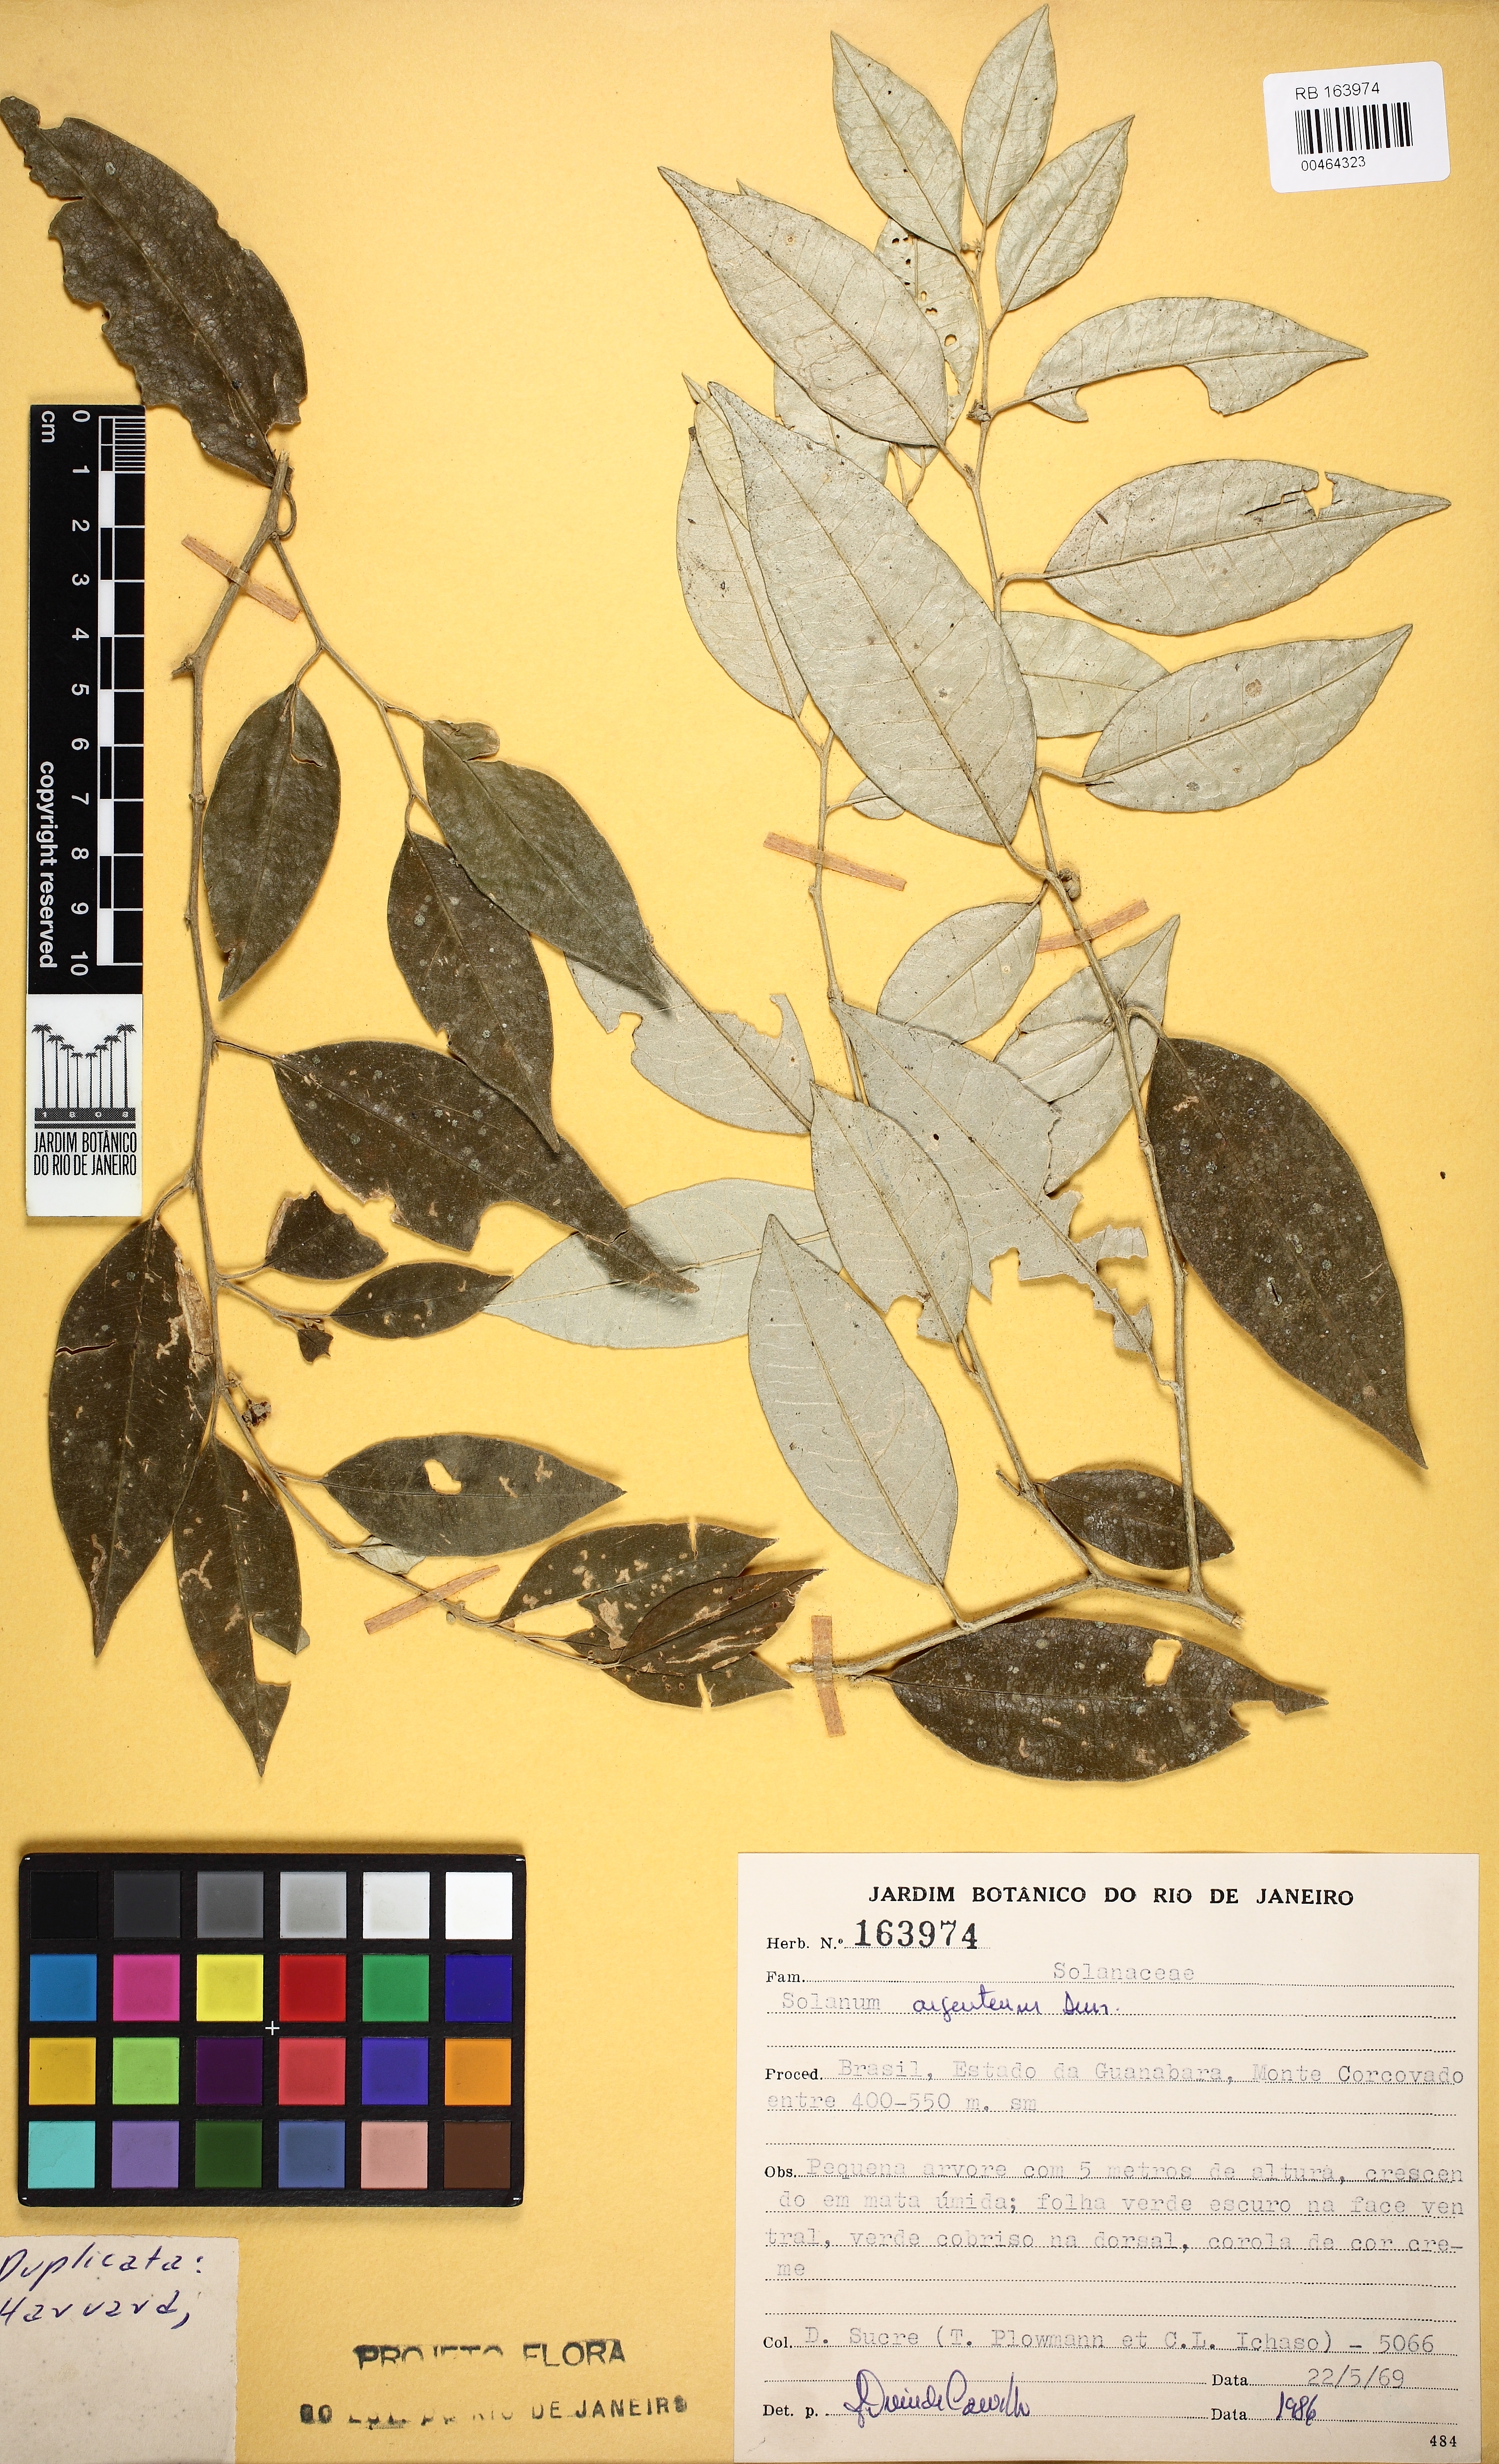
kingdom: Plantae
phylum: Tracheophyta
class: Magnoliopsida
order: Solanales
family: Solanaceae
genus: Solanum
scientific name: Solanum swartzianum
